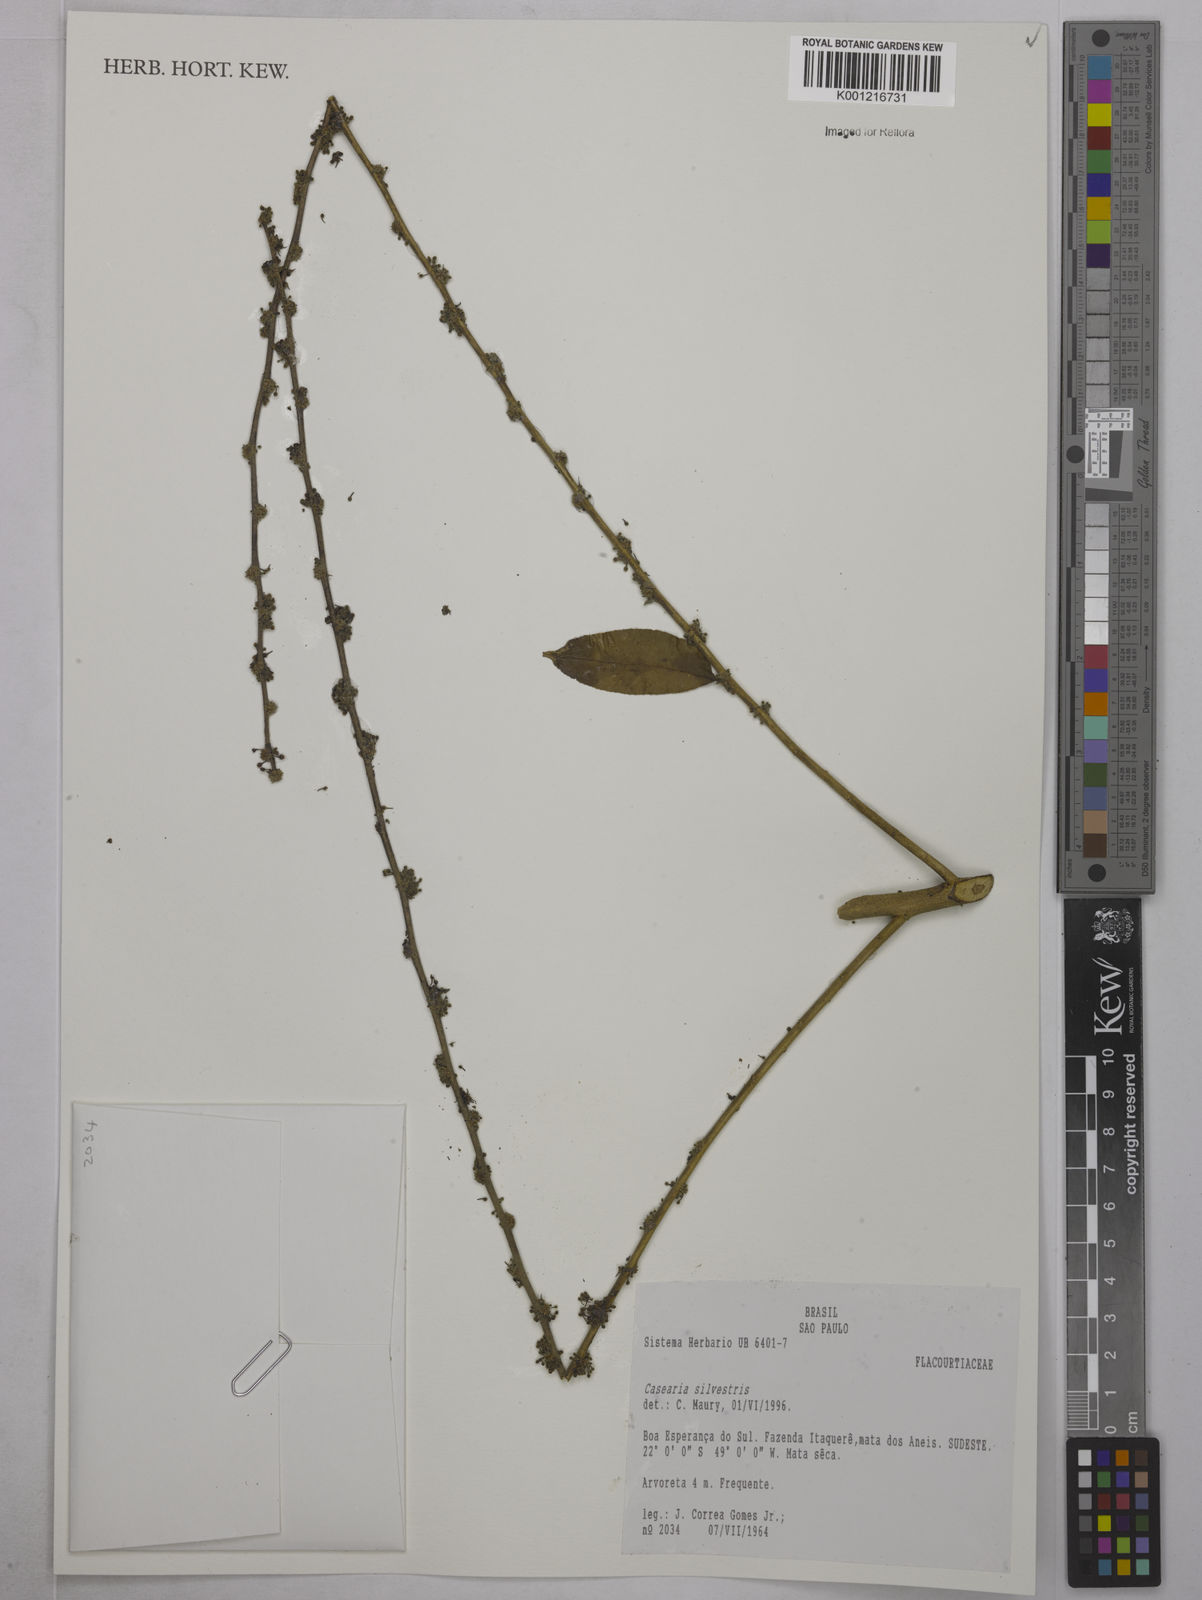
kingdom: Plantae
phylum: Tracheophyta
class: Magnoliopsida
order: Malpighiales
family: Salicaceae
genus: Casearia
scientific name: Casearia sylvestris
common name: Wild sage
